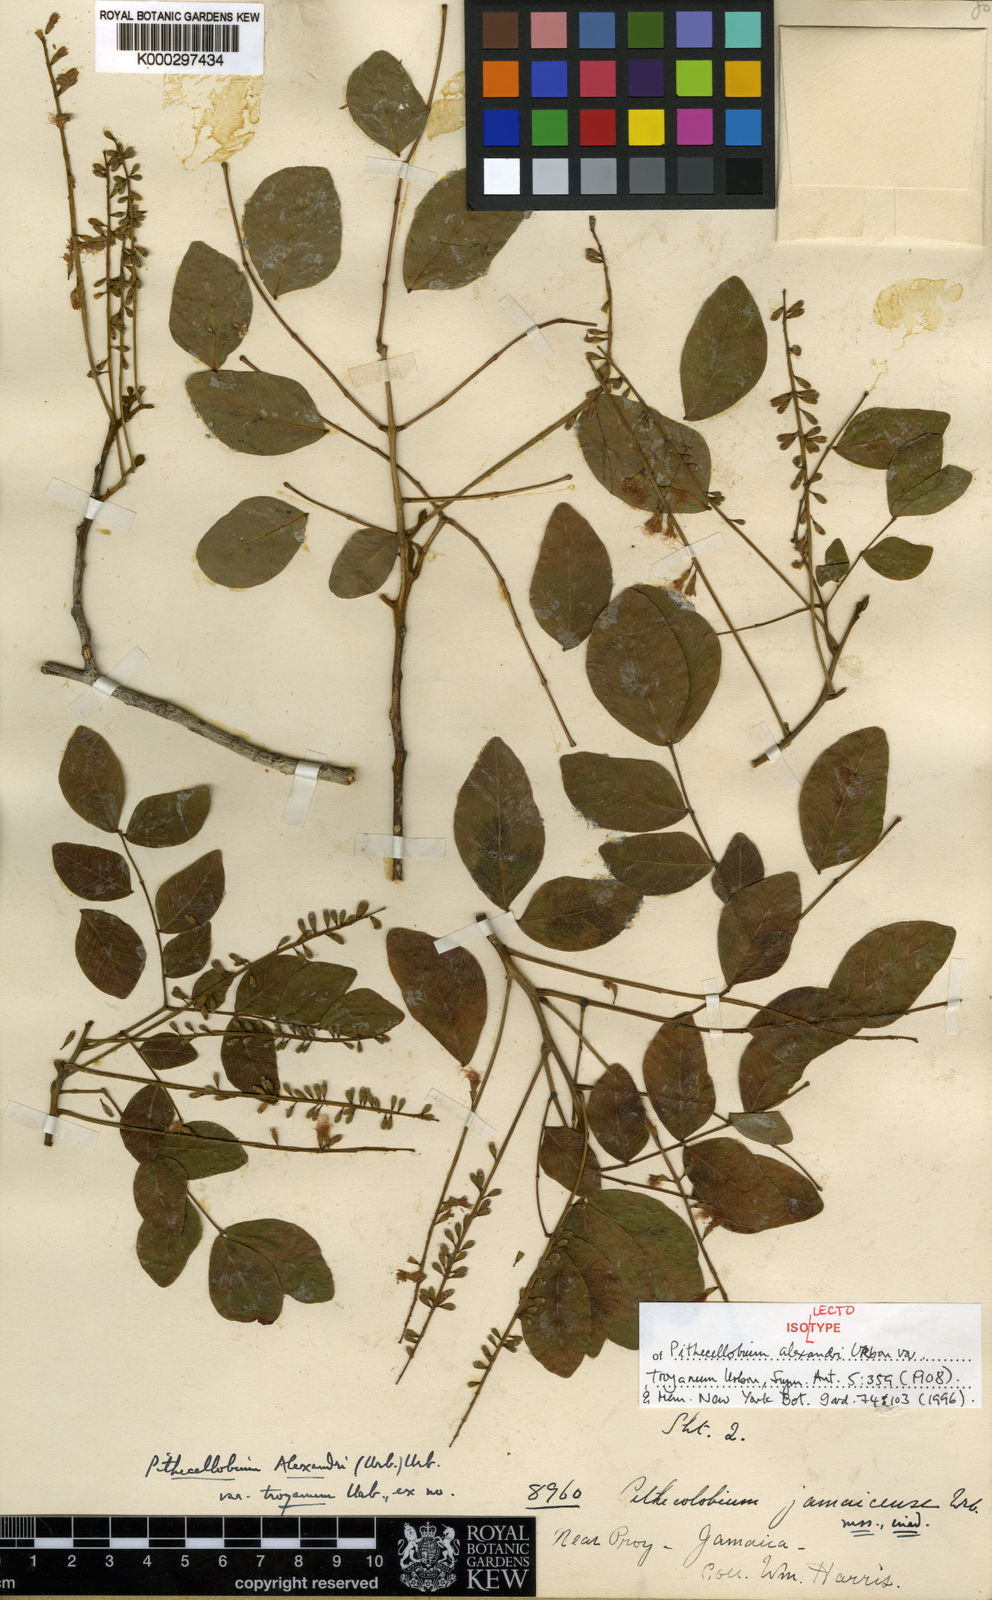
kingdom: Plantae
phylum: Tracheophyta
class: Magnoliopsida
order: Fabales
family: Fabaceae
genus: Jupunba
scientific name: Jupunba alexandri
